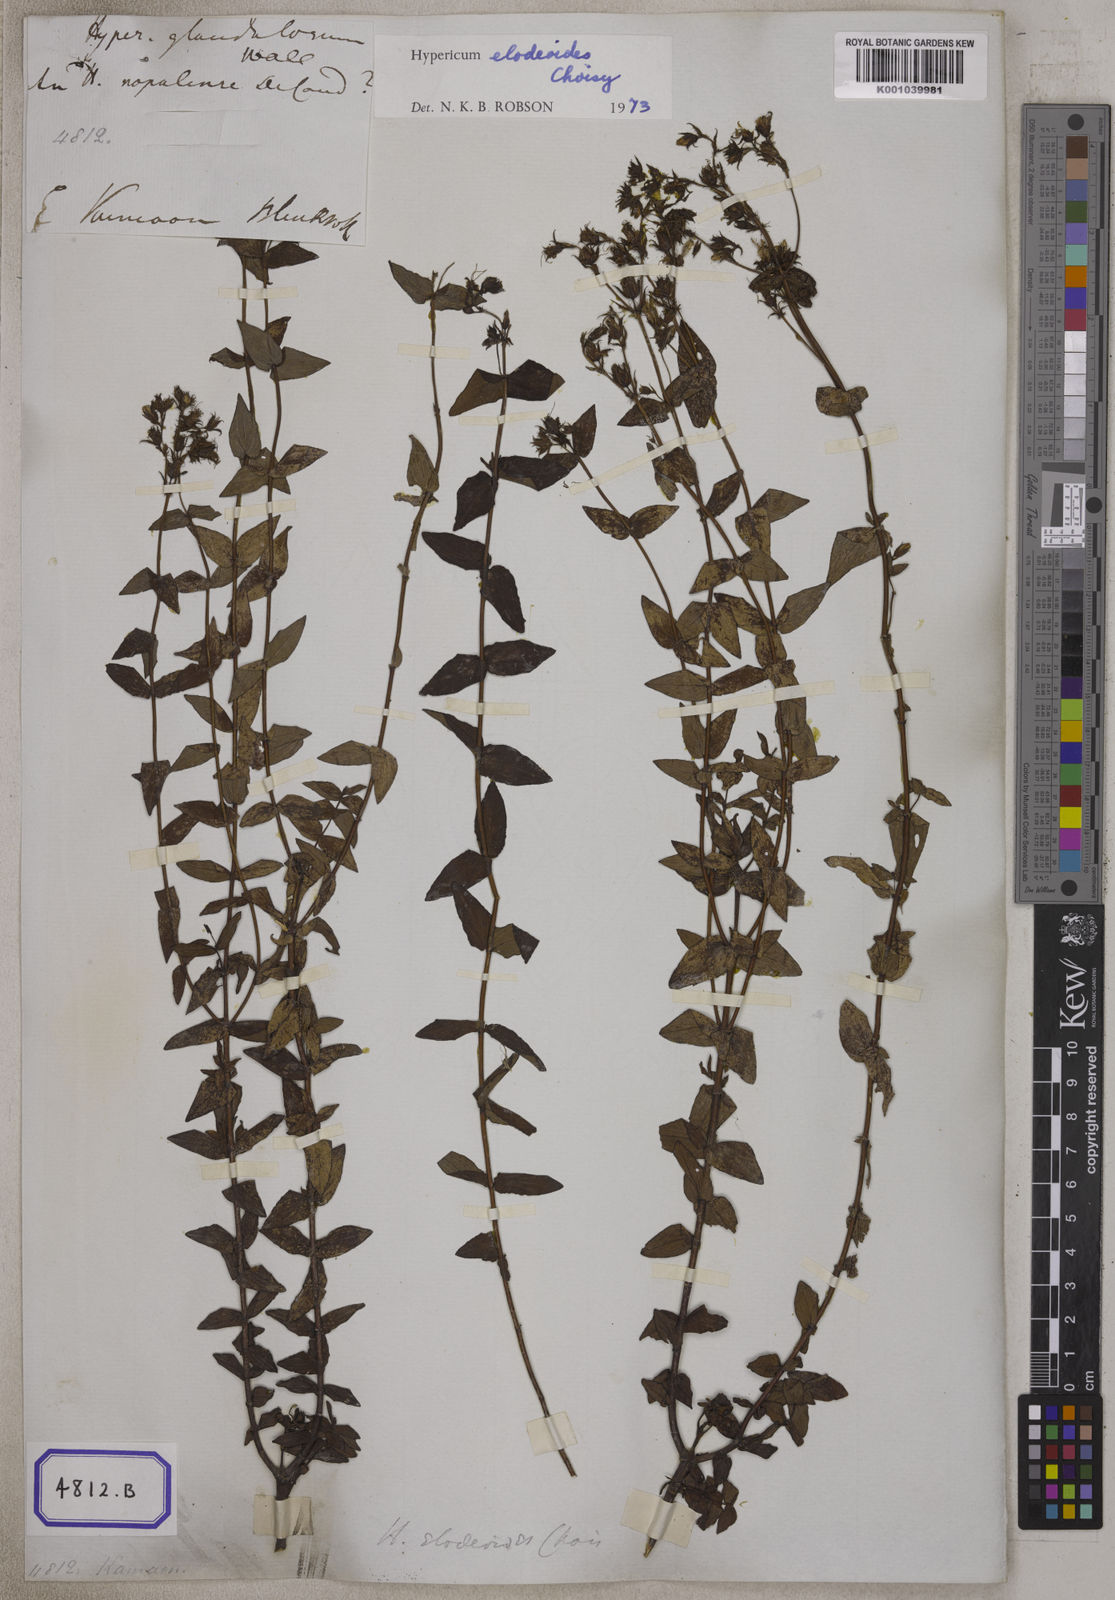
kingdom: Plantae
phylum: Tracheophyta
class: Magnoliopsida
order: Malpighiales
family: Hypericaceae
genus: Hypericum
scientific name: Hypericum elodeoides
